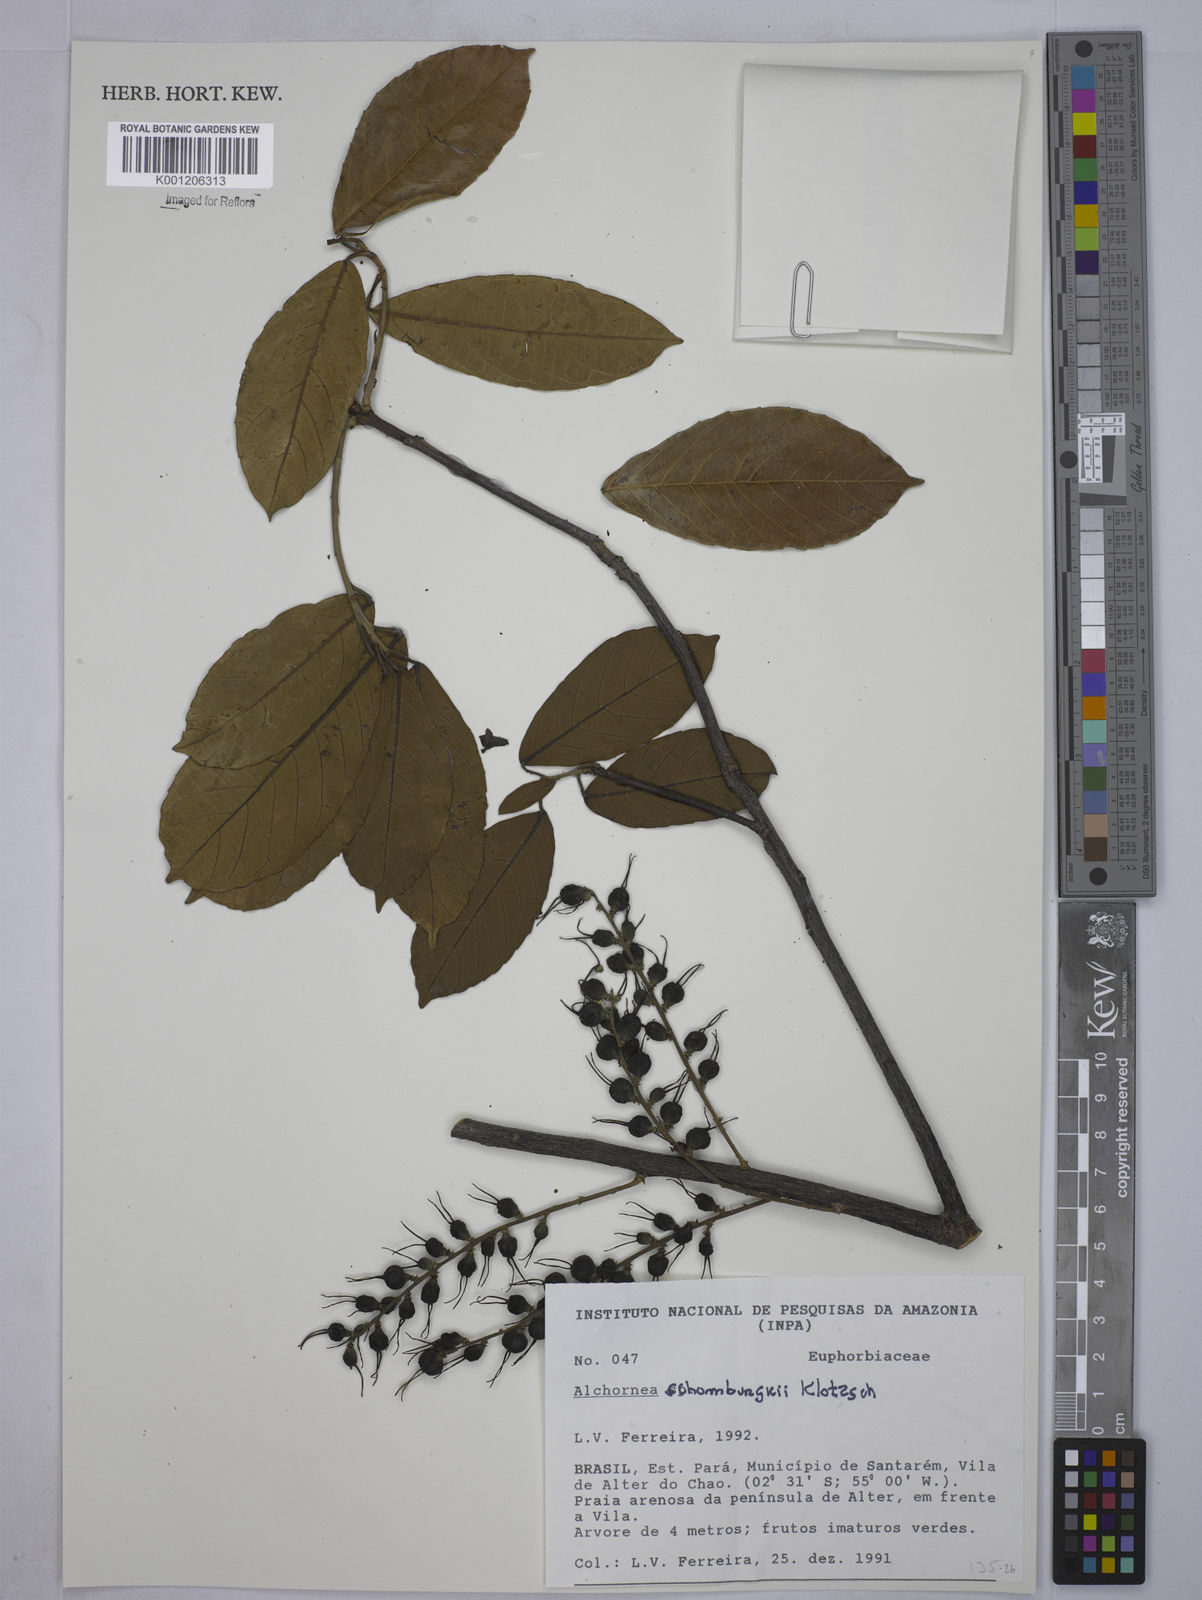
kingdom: Plantae
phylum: Tracheophyta
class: Magnoliopsida
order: Malpighiales
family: Euphorbiaceae
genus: Alchornea
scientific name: Alchornea discolor
